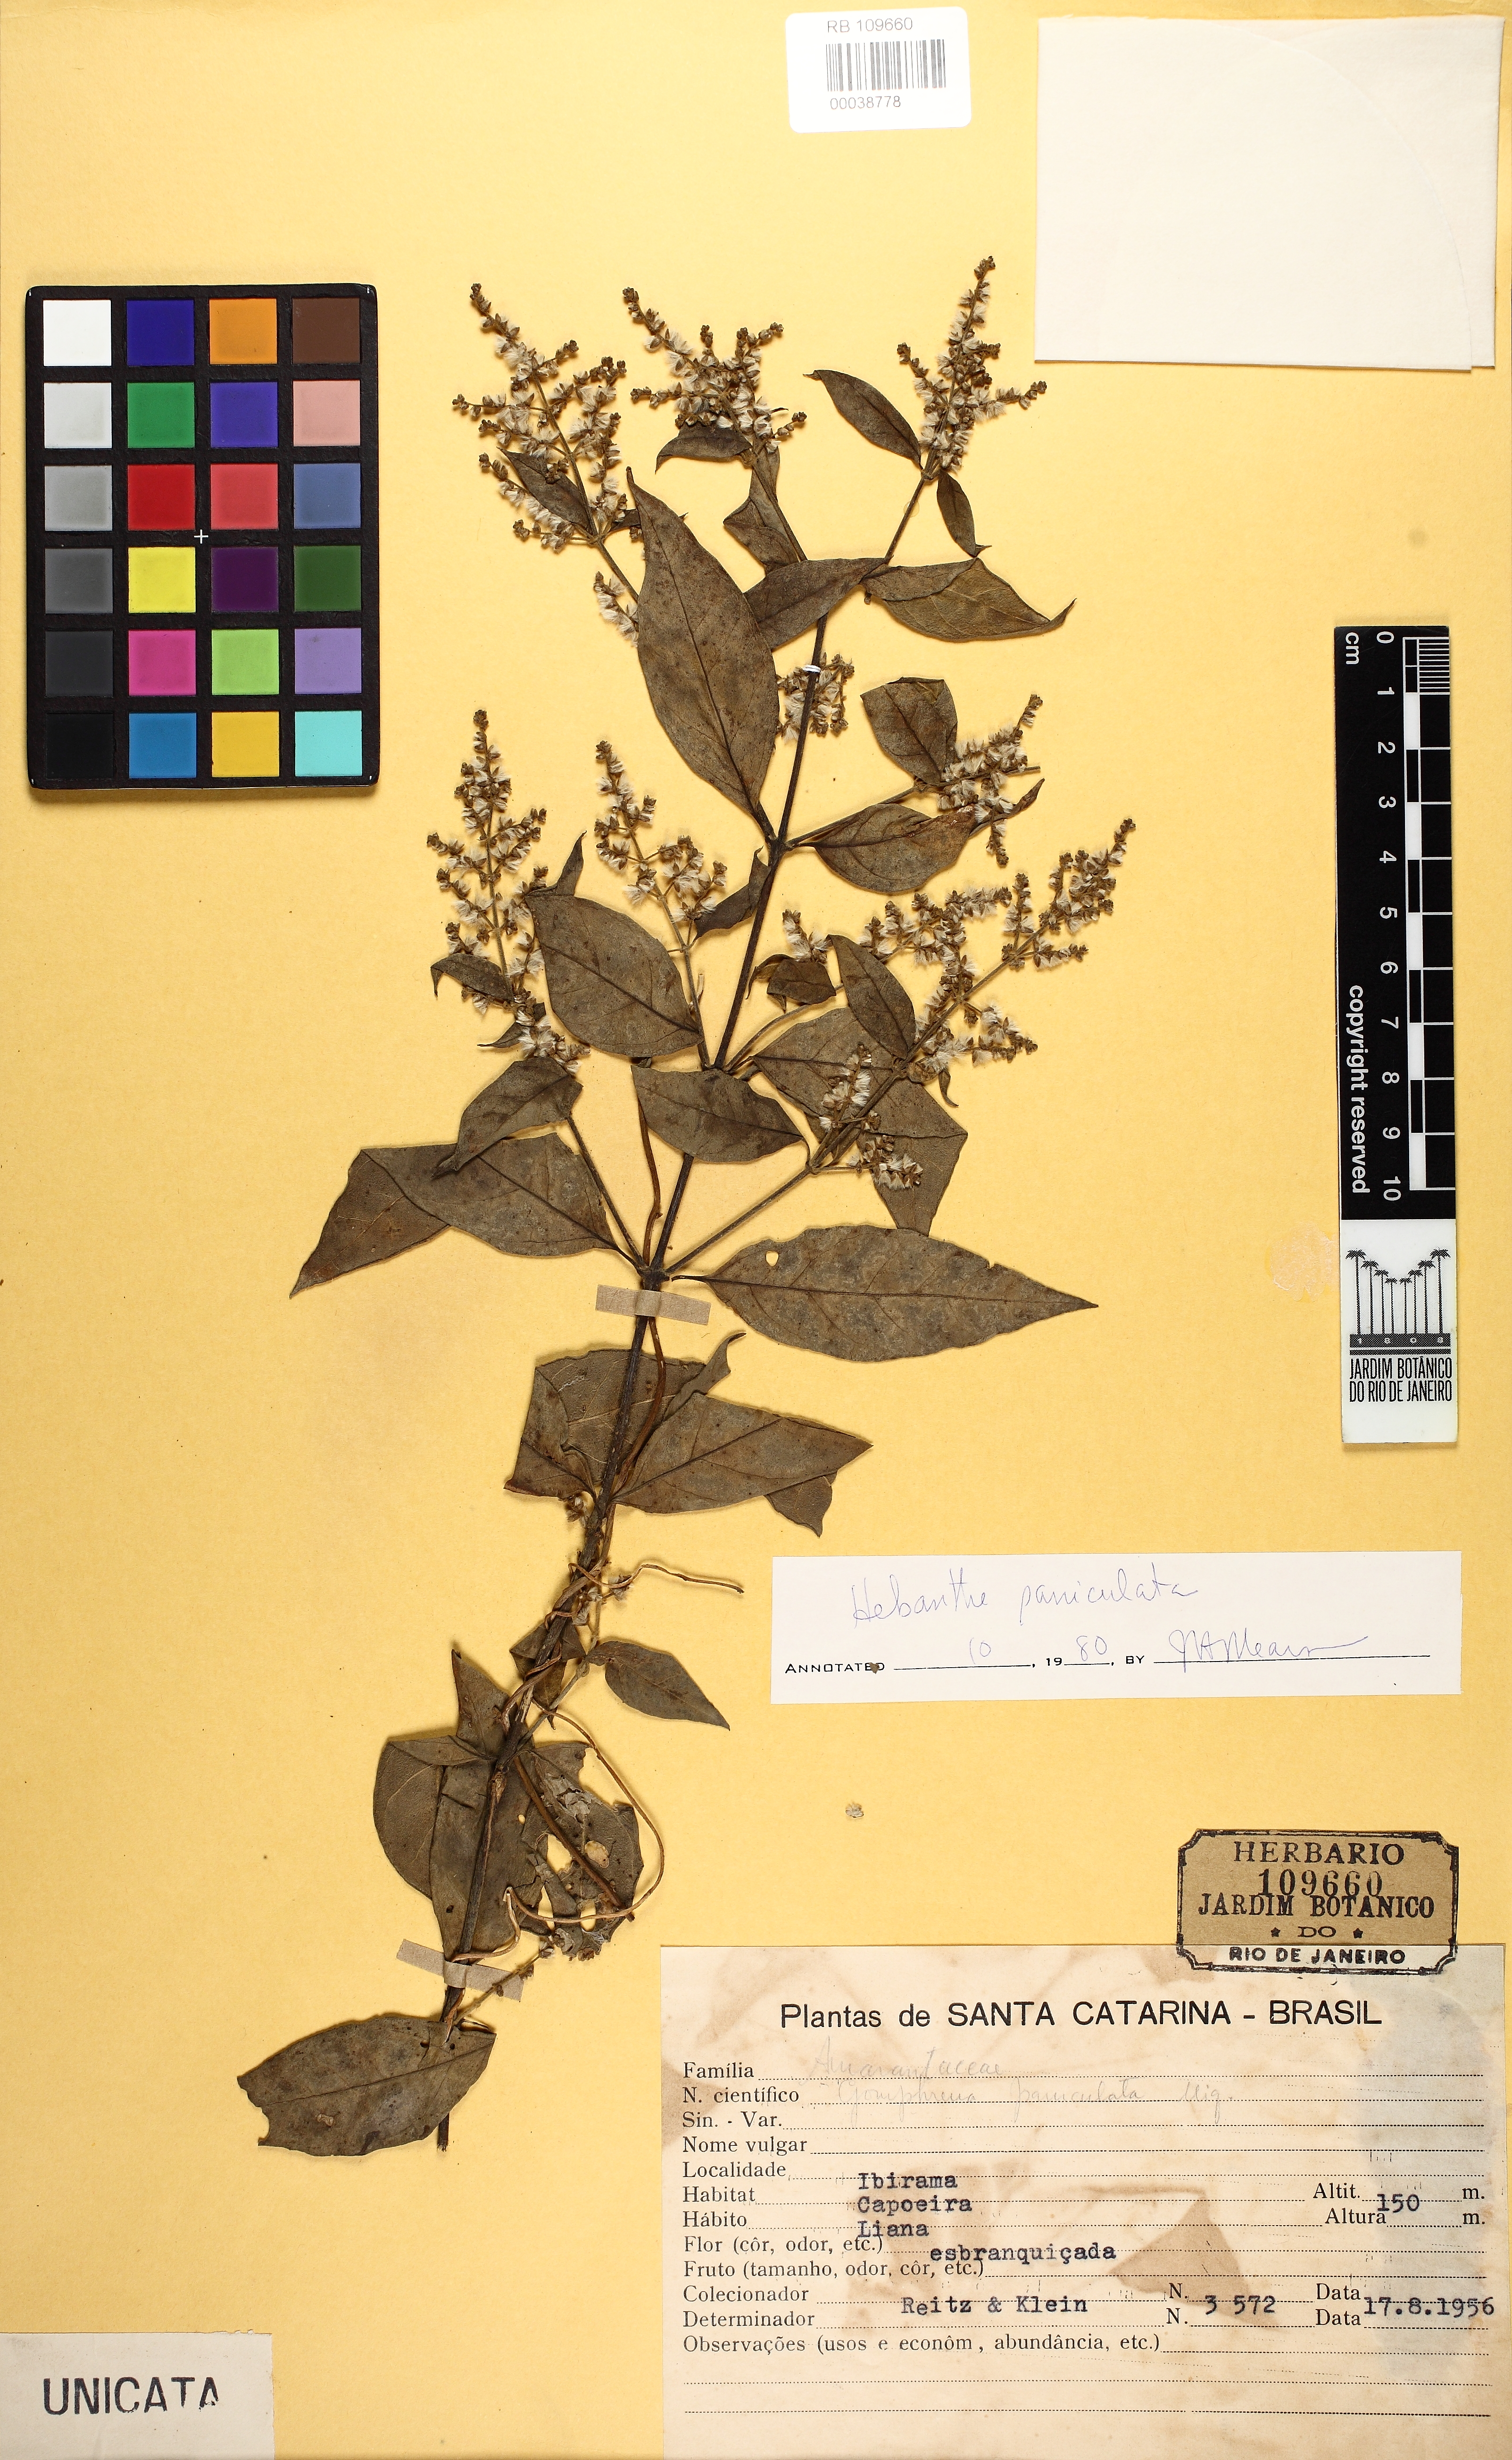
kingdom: Plantae
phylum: Tracheophyta
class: Magnoliopsida
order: Caryophyllales
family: Amaranthaceae
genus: Hebanthe
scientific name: Hebanthe erianthos
